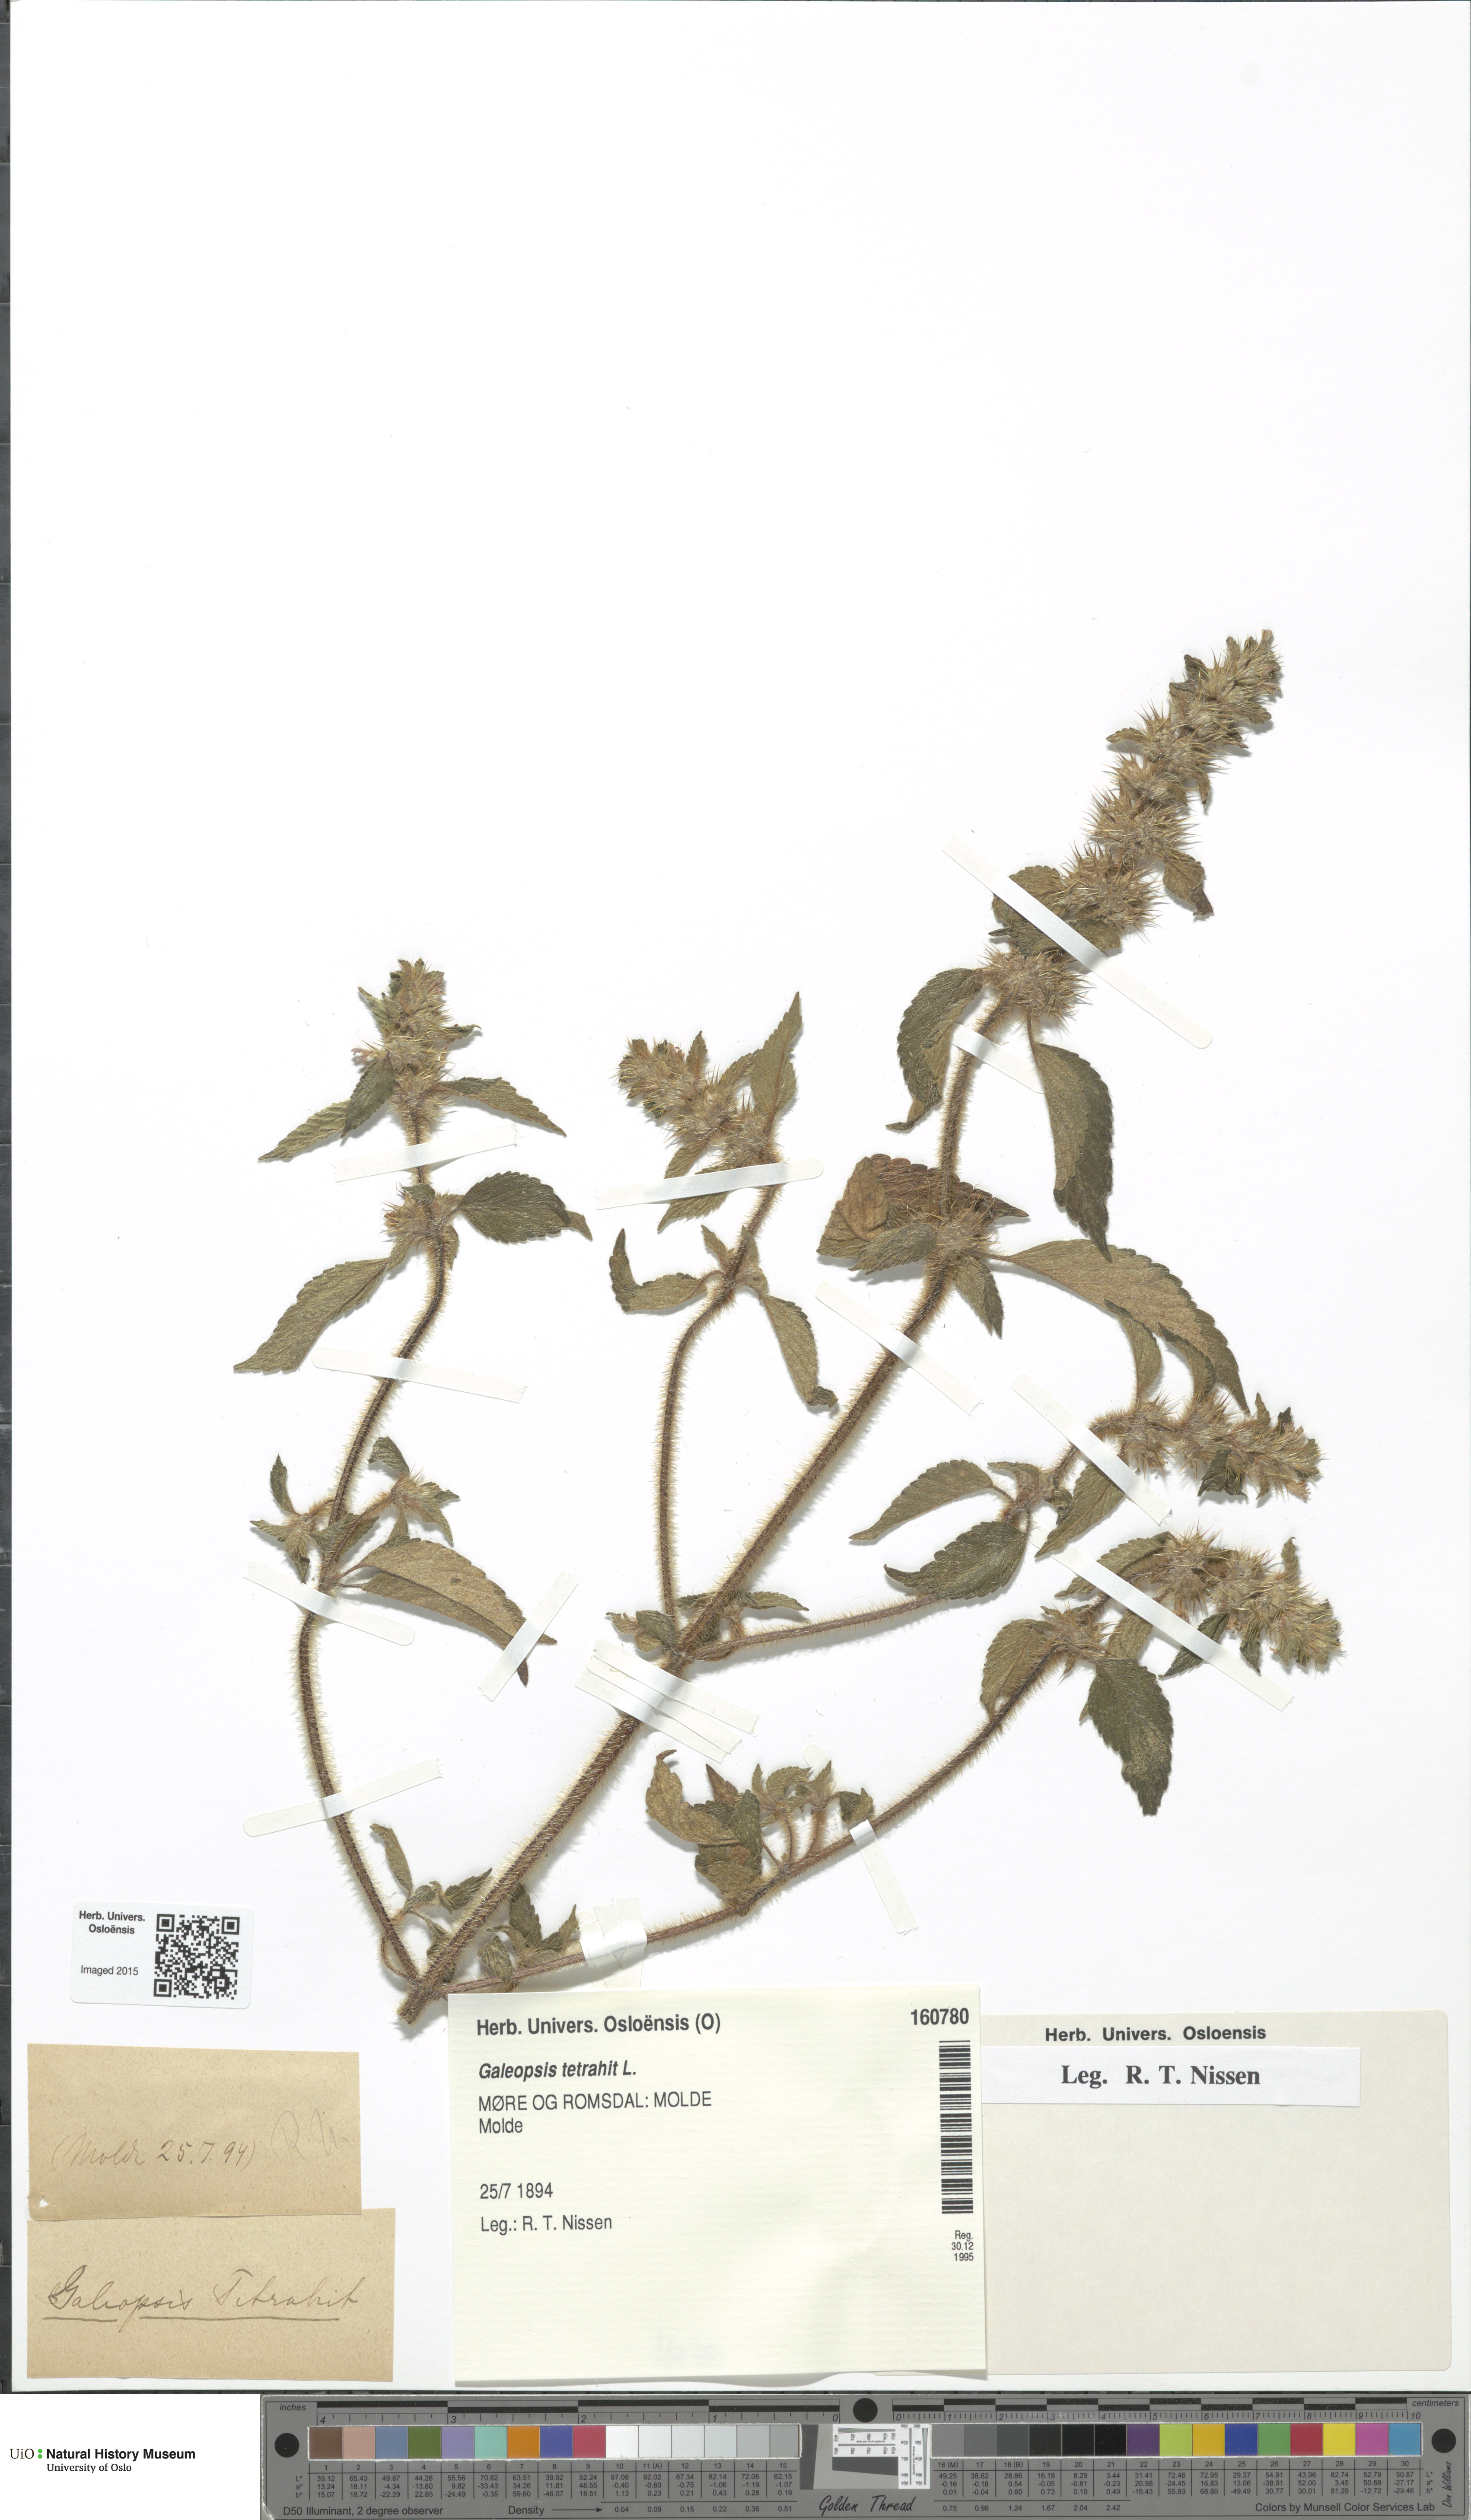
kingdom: Plantae
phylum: Tracheophyta
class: Magnoliopsida
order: Lamiales
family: Lamiaceae
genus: Galeopsis
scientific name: Galeopsis tetrahit
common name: Common hemp-nettle
